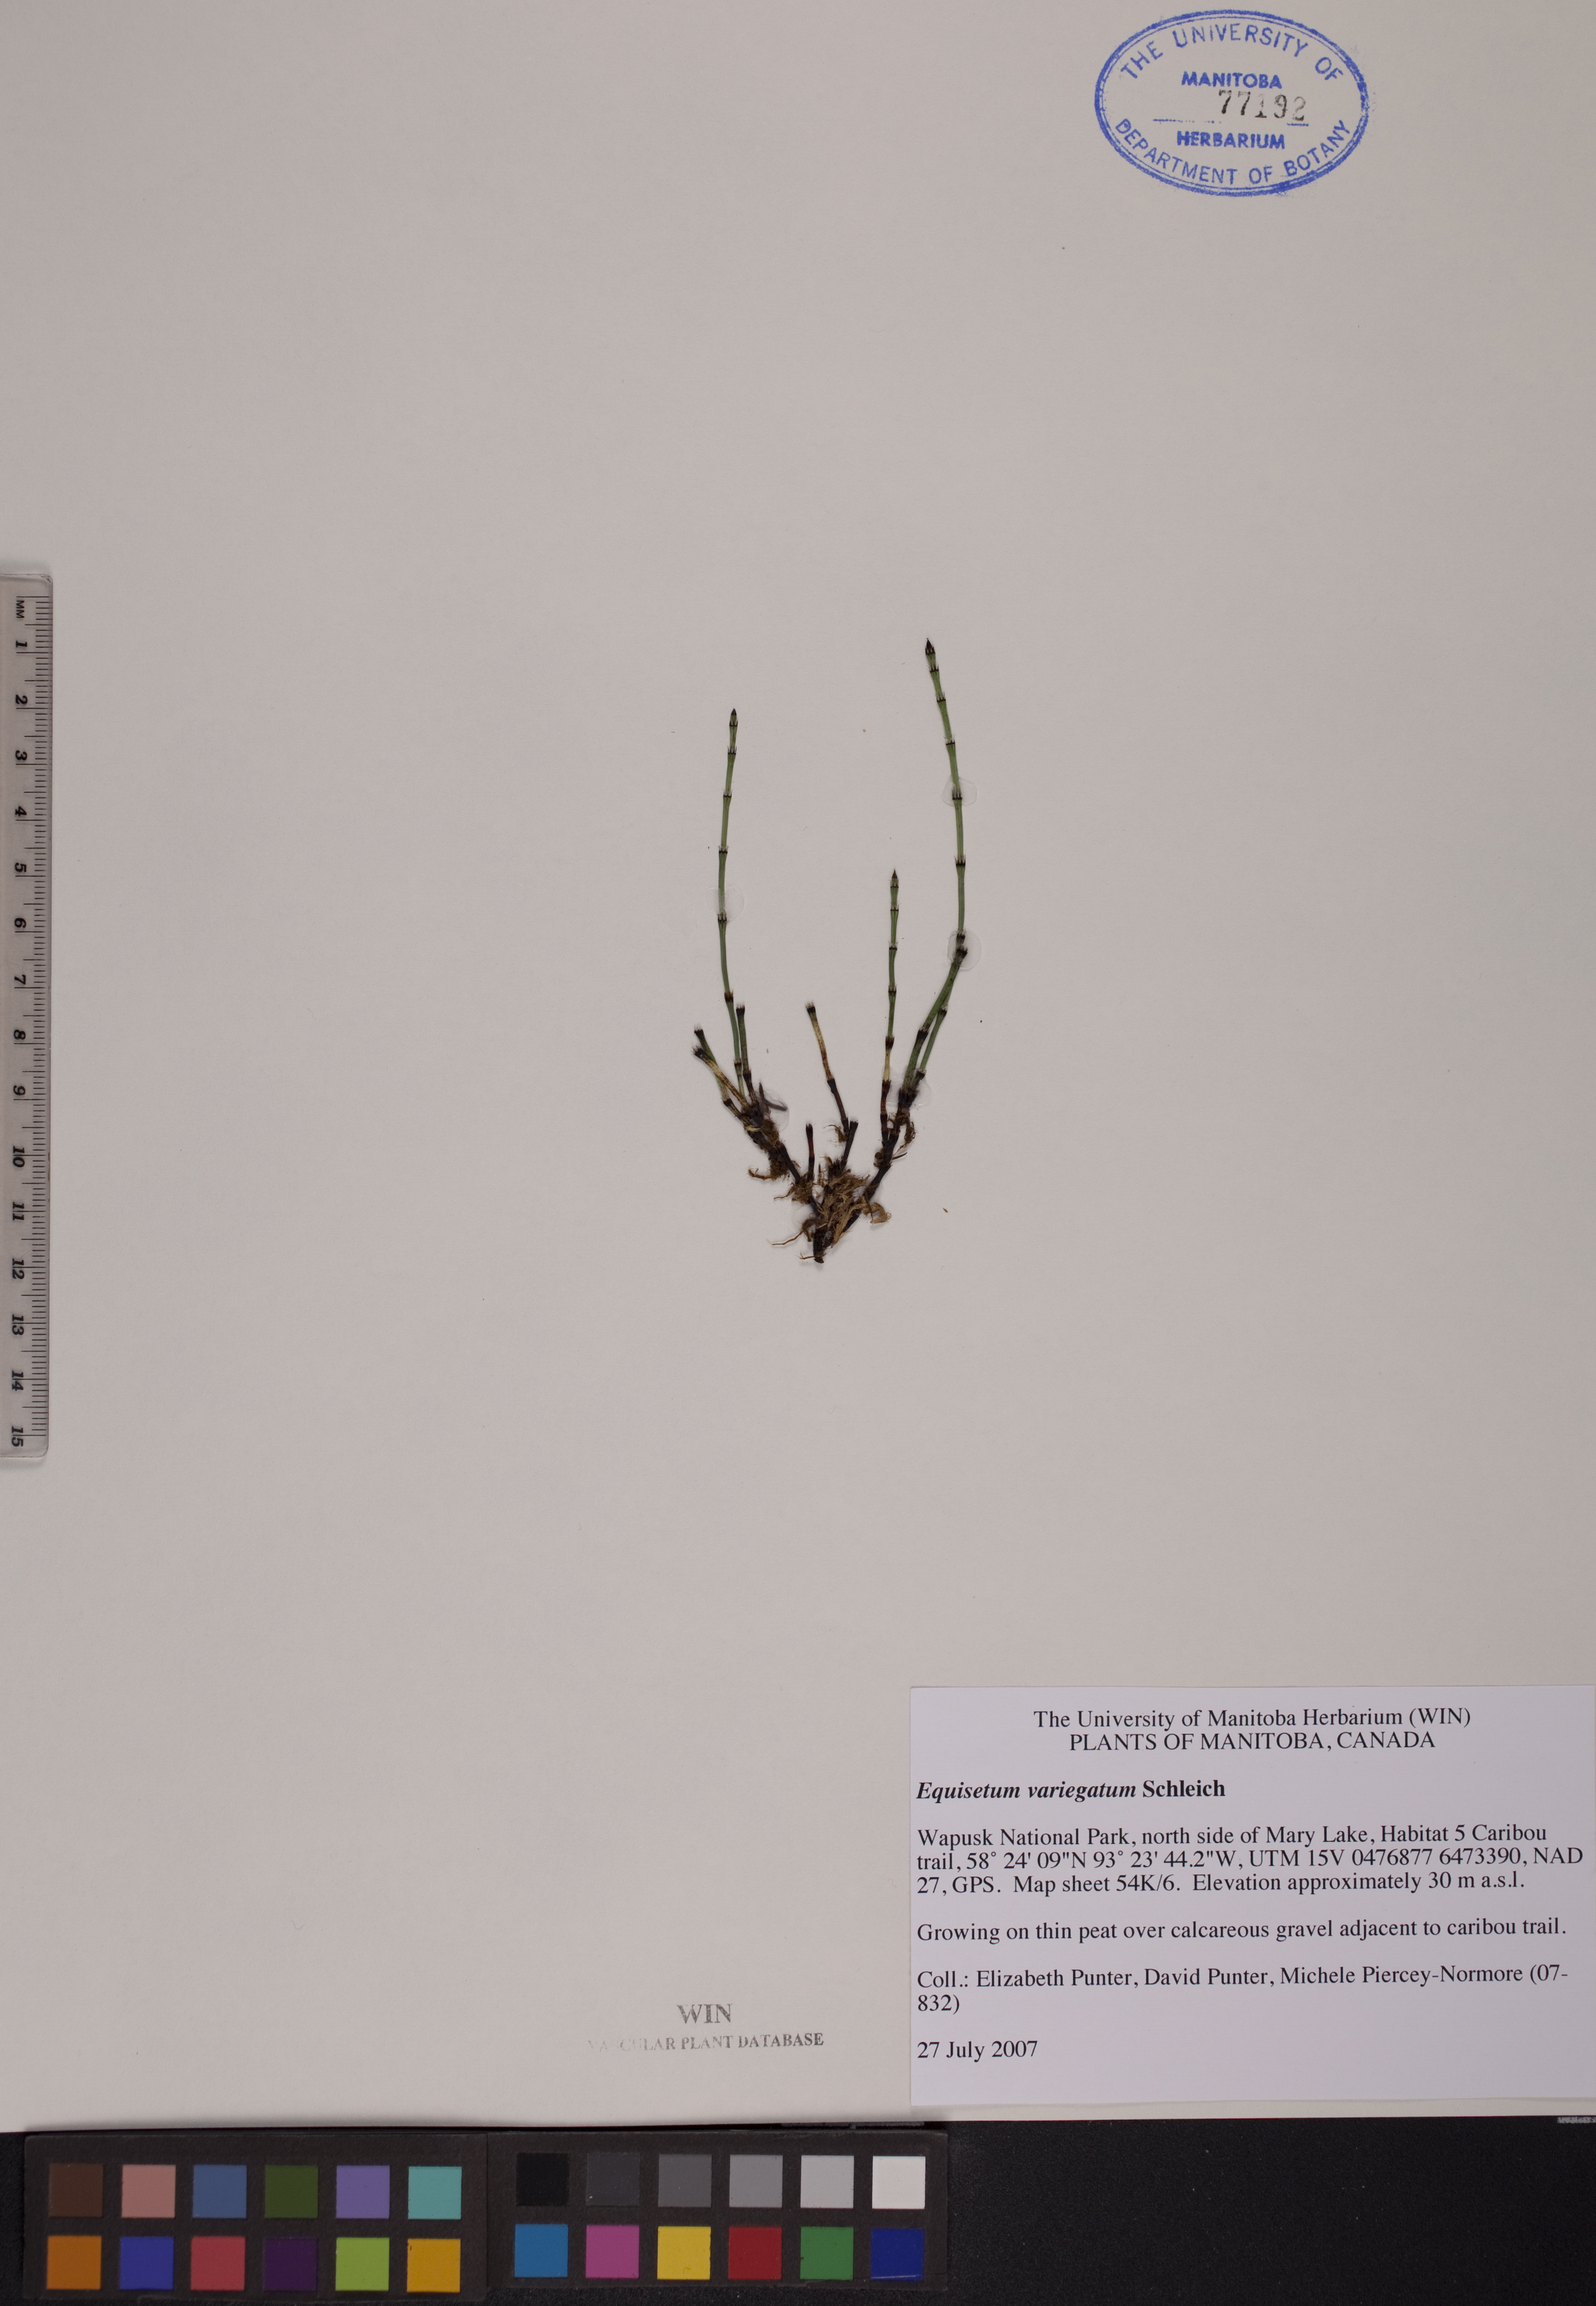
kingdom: Plantae
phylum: Tracheophyta
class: Polypodiopsida
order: Equisetales
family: Equisetaceae
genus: Equisetum
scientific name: Equisetum variegatum
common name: Variegated horsetail
